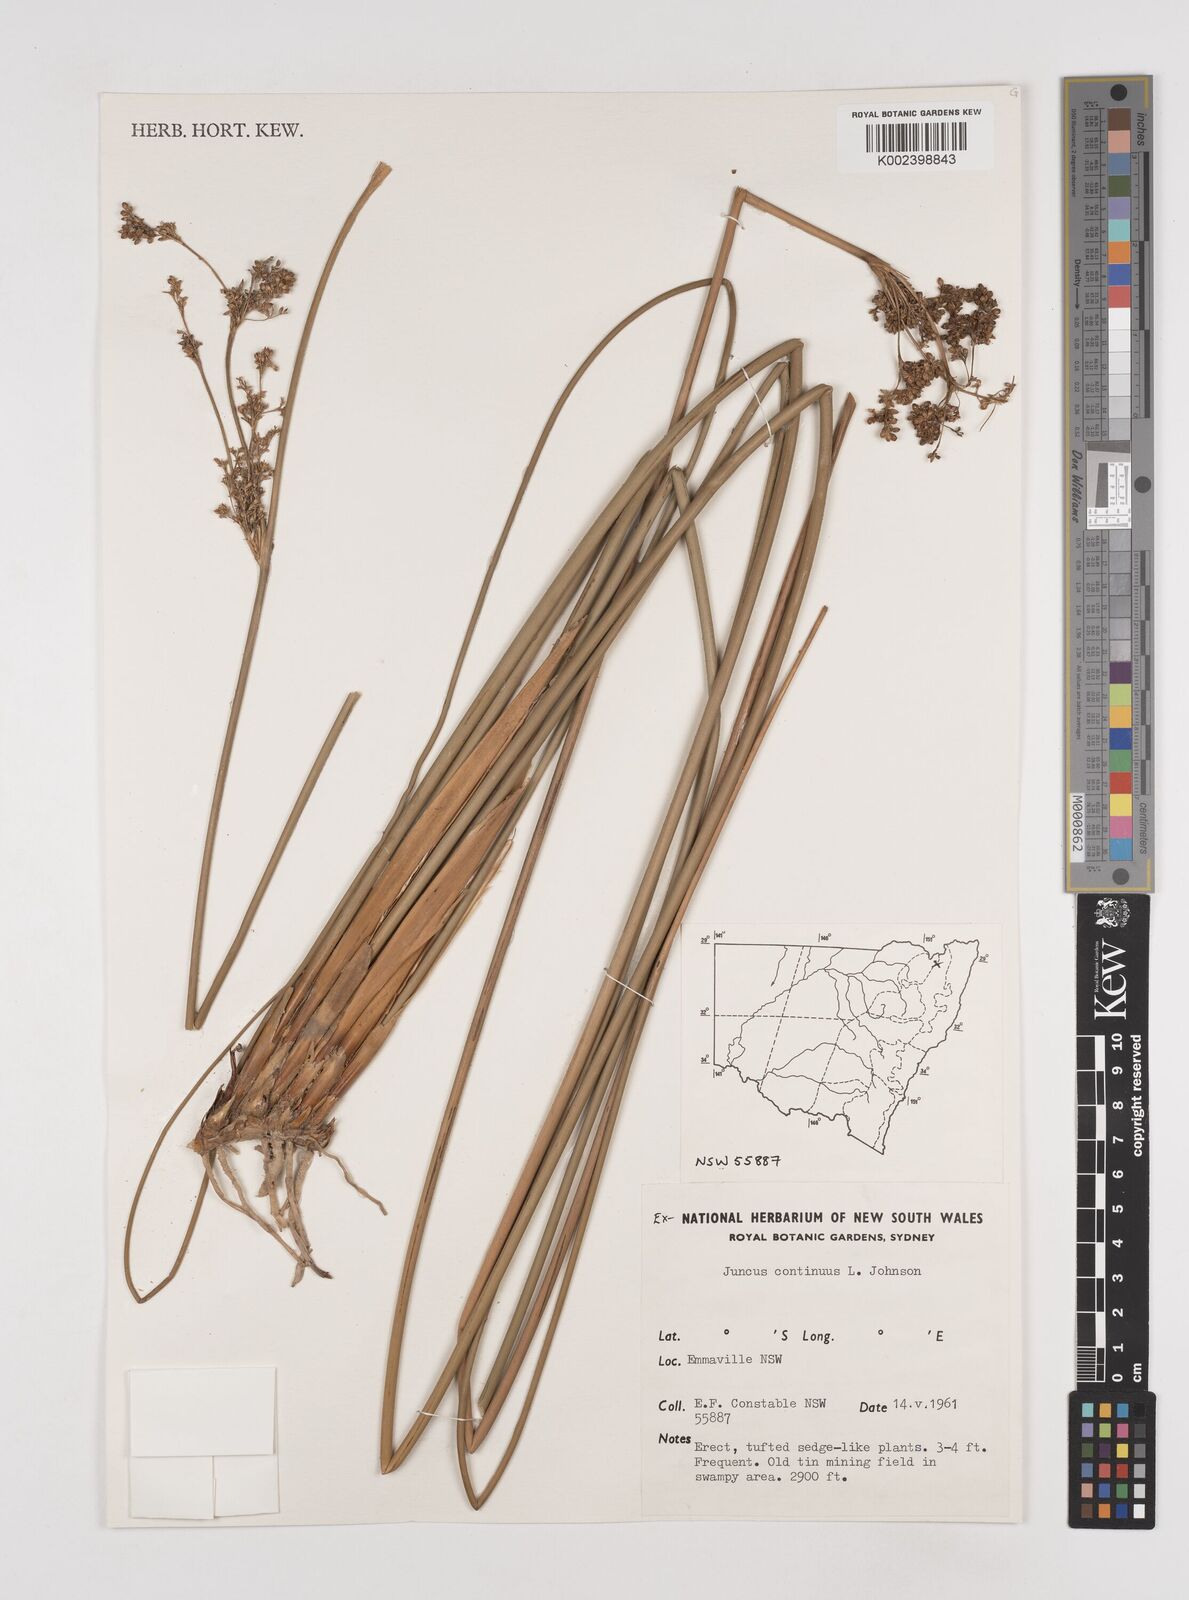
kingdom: Plantae
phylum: Tracheophyta
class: Liliopsida
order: Poales
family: Juncaceae
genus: Juncus
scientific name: Juncus continuus
